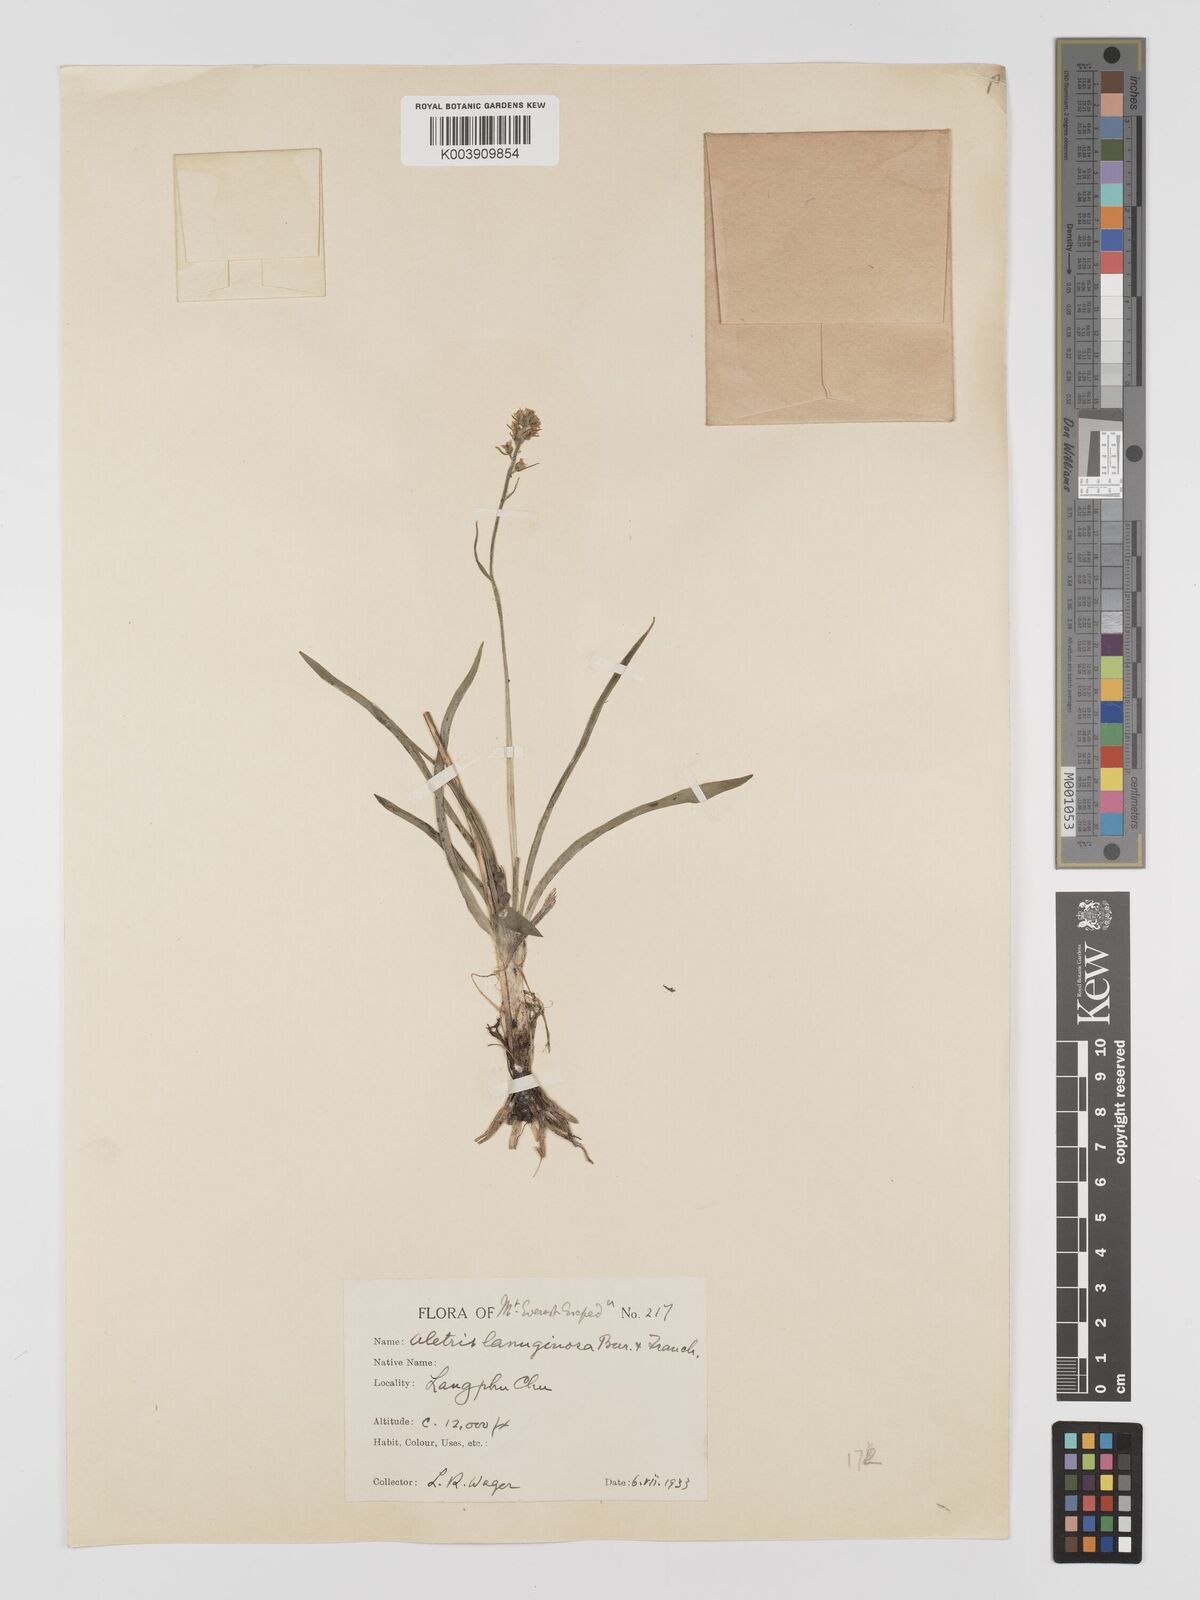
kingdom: Plantae
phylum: Tracheophyta
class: Liliopsida
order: Dioscoreales
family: Nartheciaceae
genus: Aletris
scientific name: Aletris pauciflora
